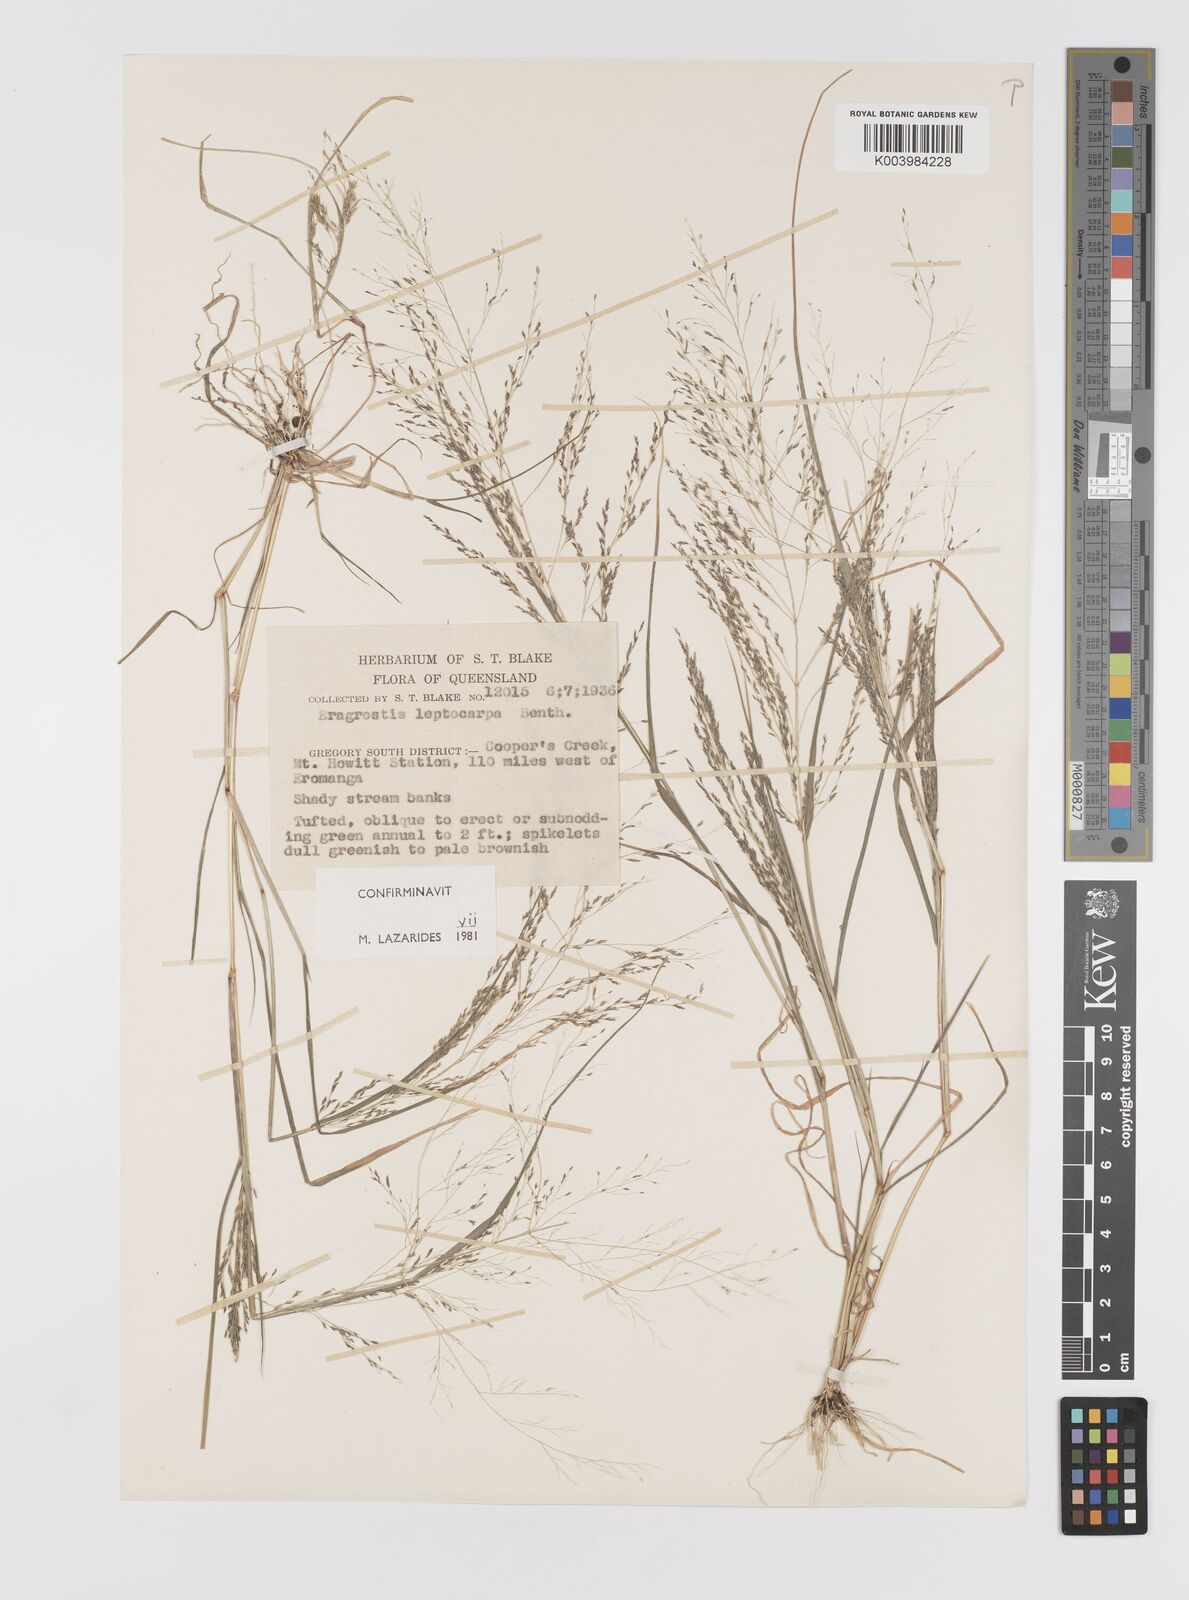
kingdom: Plantae
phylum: Tracheophyta
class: Liliopsida
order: Poales
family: Poaceae
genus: Eragrostis
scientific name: Eragrostis leptocarpa
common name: Drooping love grass
